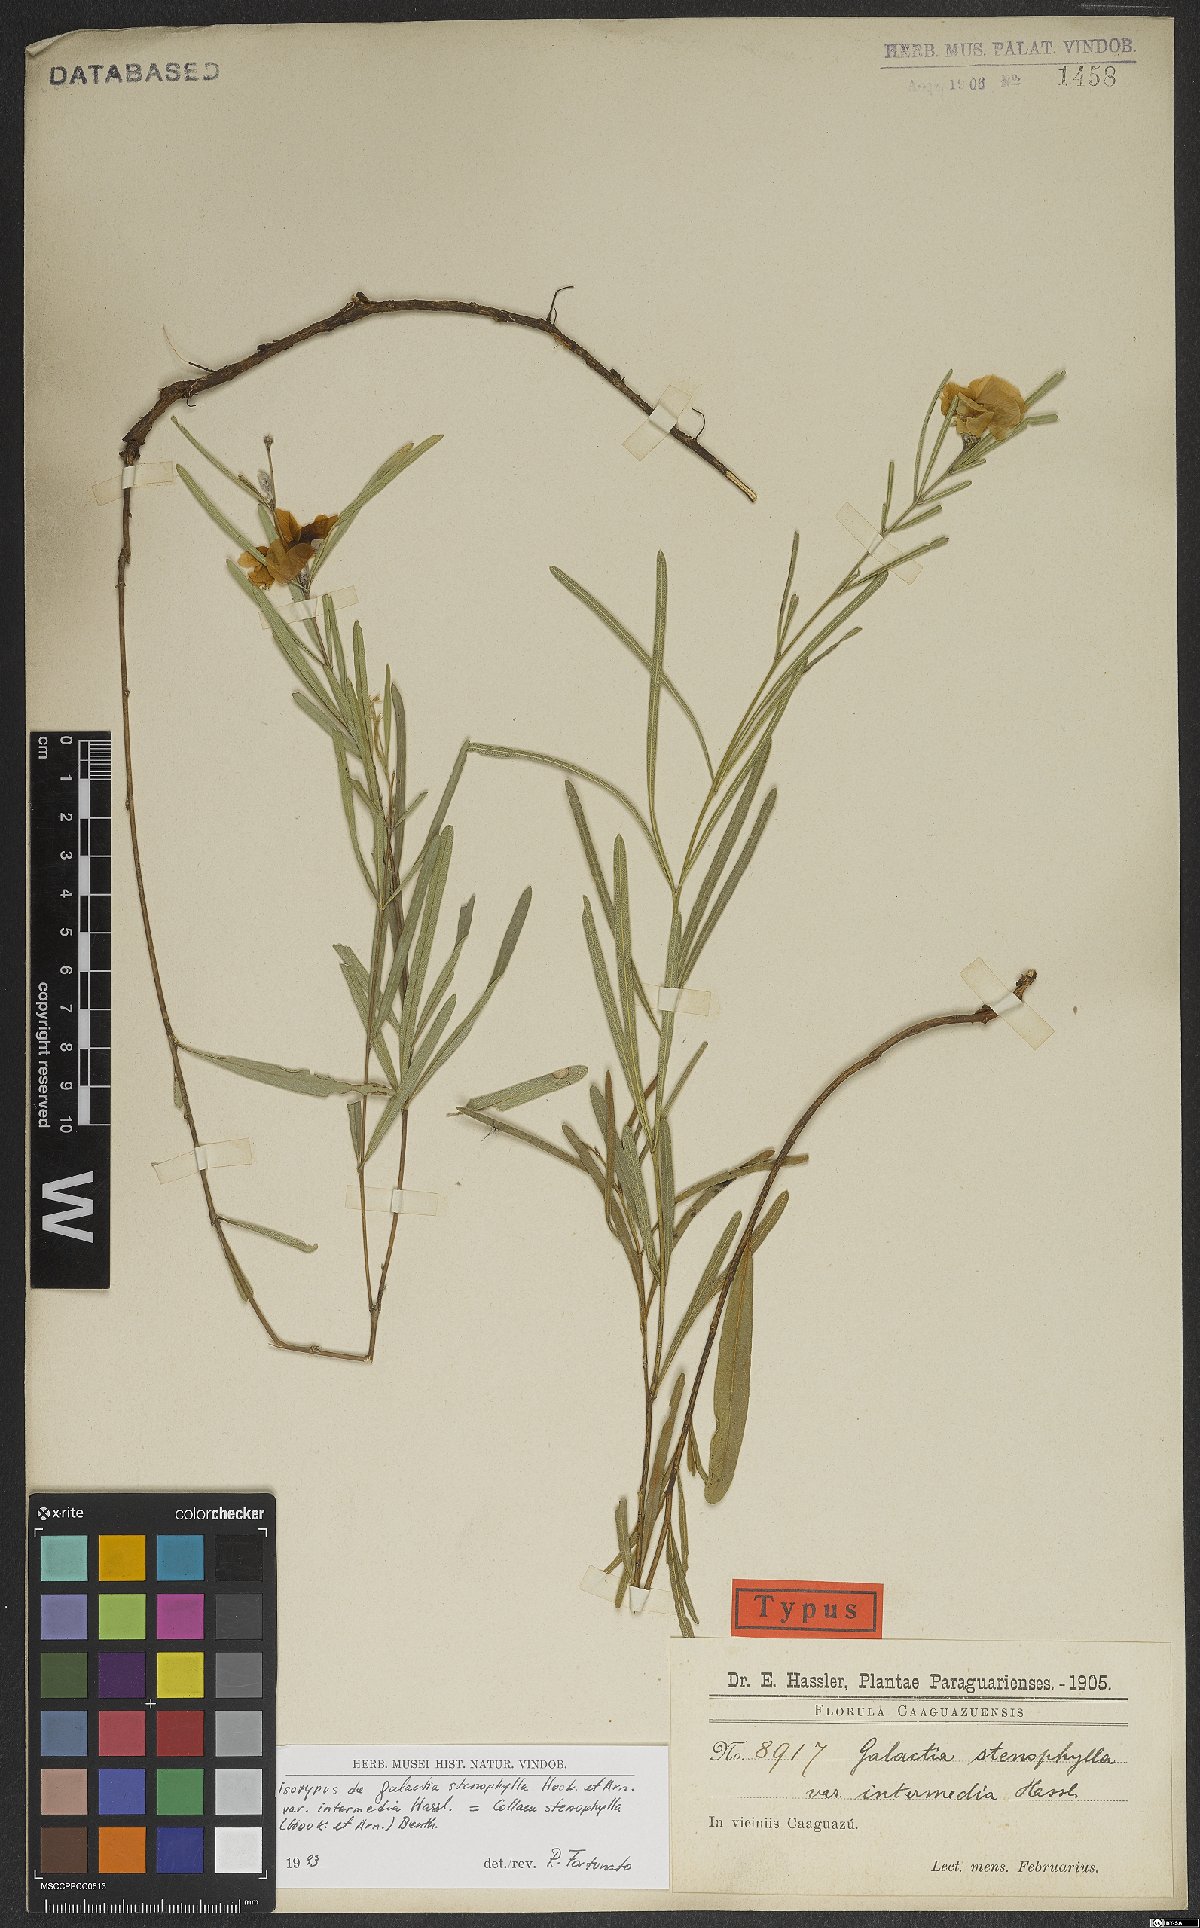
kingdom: Plantae
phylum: Tracheophyta
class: Magnoliopsida
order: Fabales
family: Fabaceae
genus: Collaea
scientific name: Collaea stenophylla
